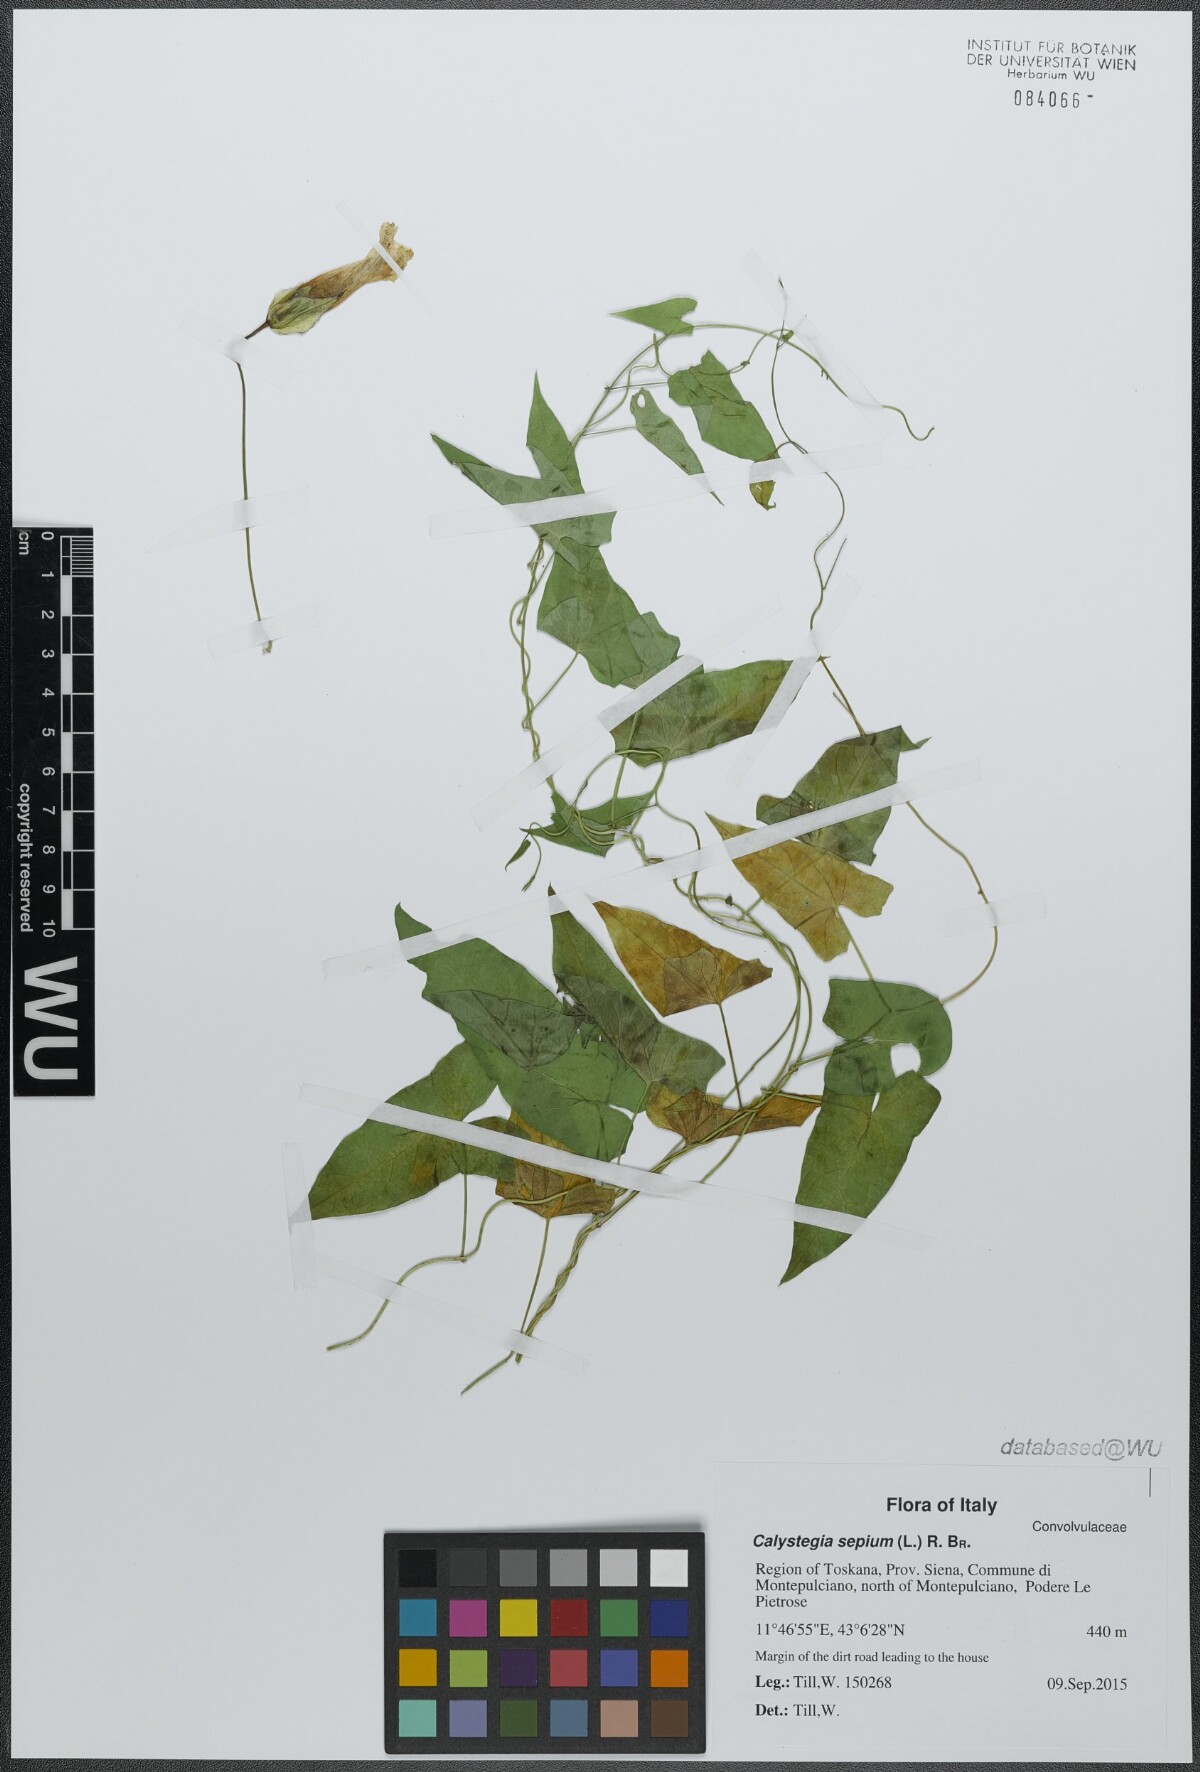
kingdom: Plantae
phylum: Tracheophyta
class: Magnoliopsida
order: Solanales
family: Convolvulaceae
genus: Calystegia
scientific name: Calystegia sepium
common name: Hedge bindweed
